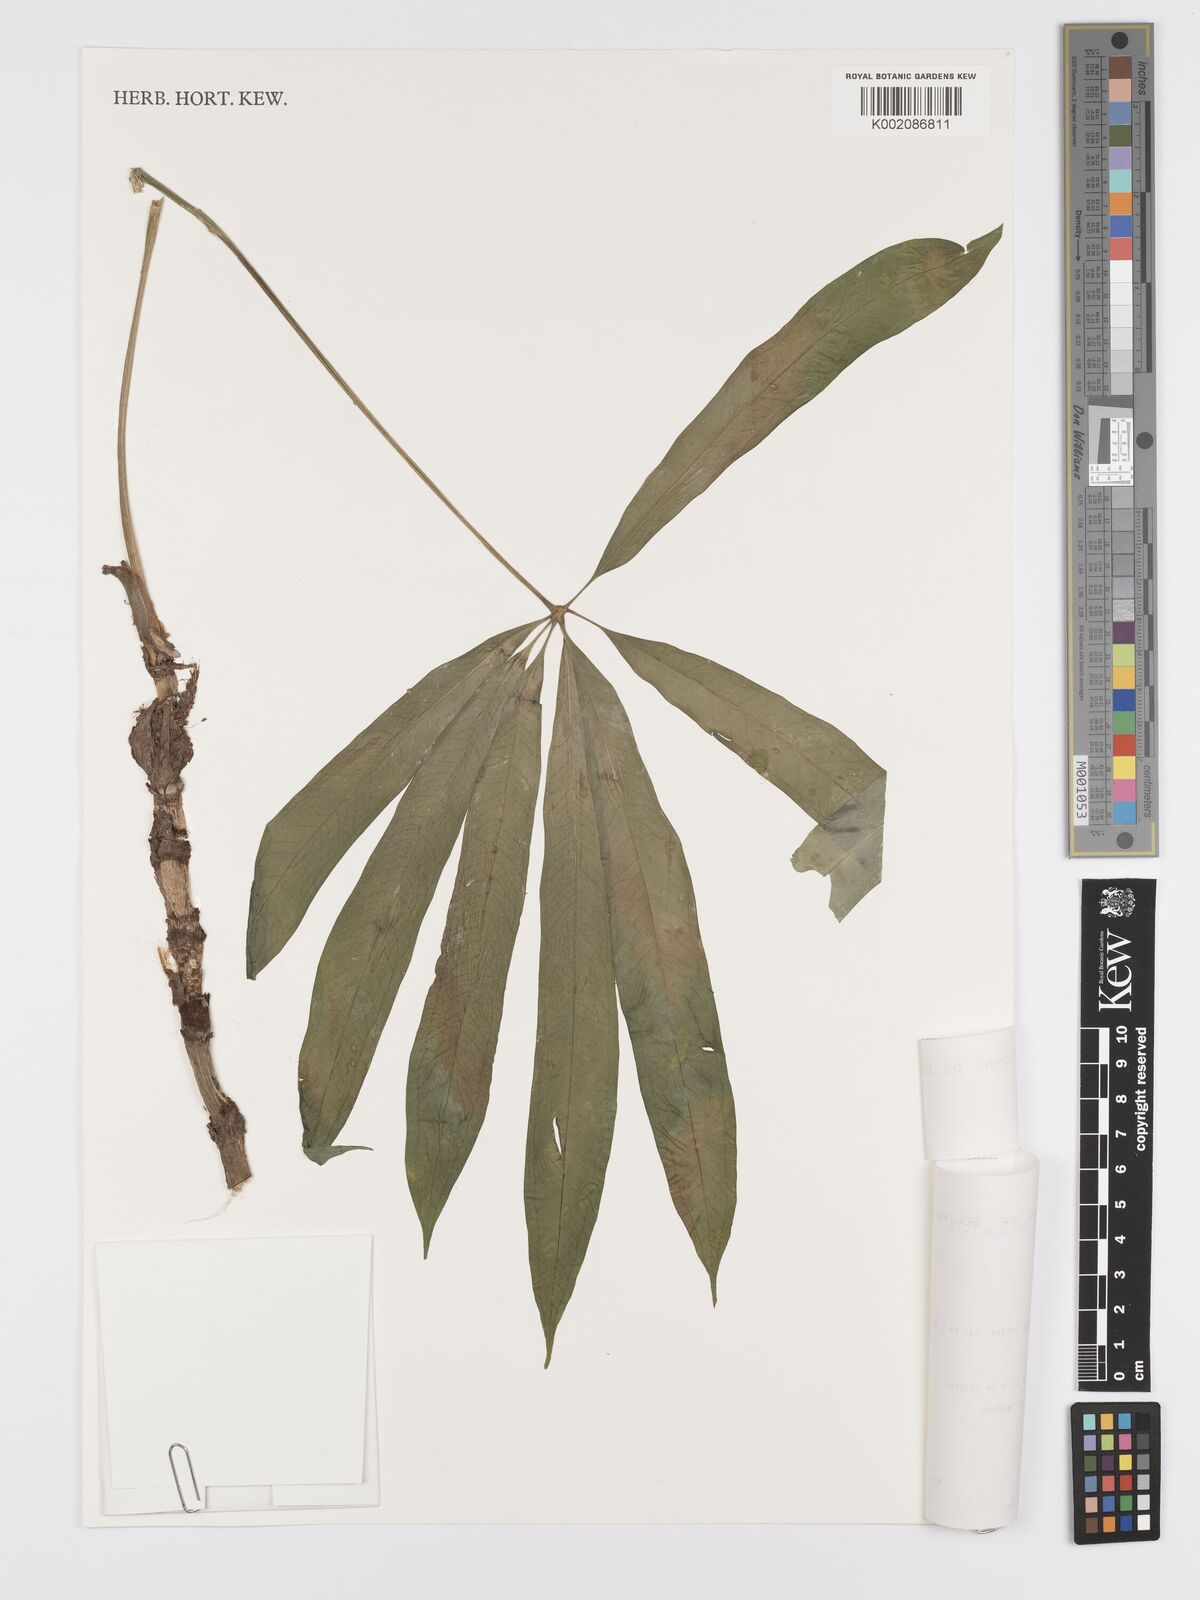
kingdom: Plantae
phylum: Tracheophyta
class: Liliopsida
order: Alismatales
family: Araceae
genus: Anthurium
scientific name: Anthurium polydactylum
